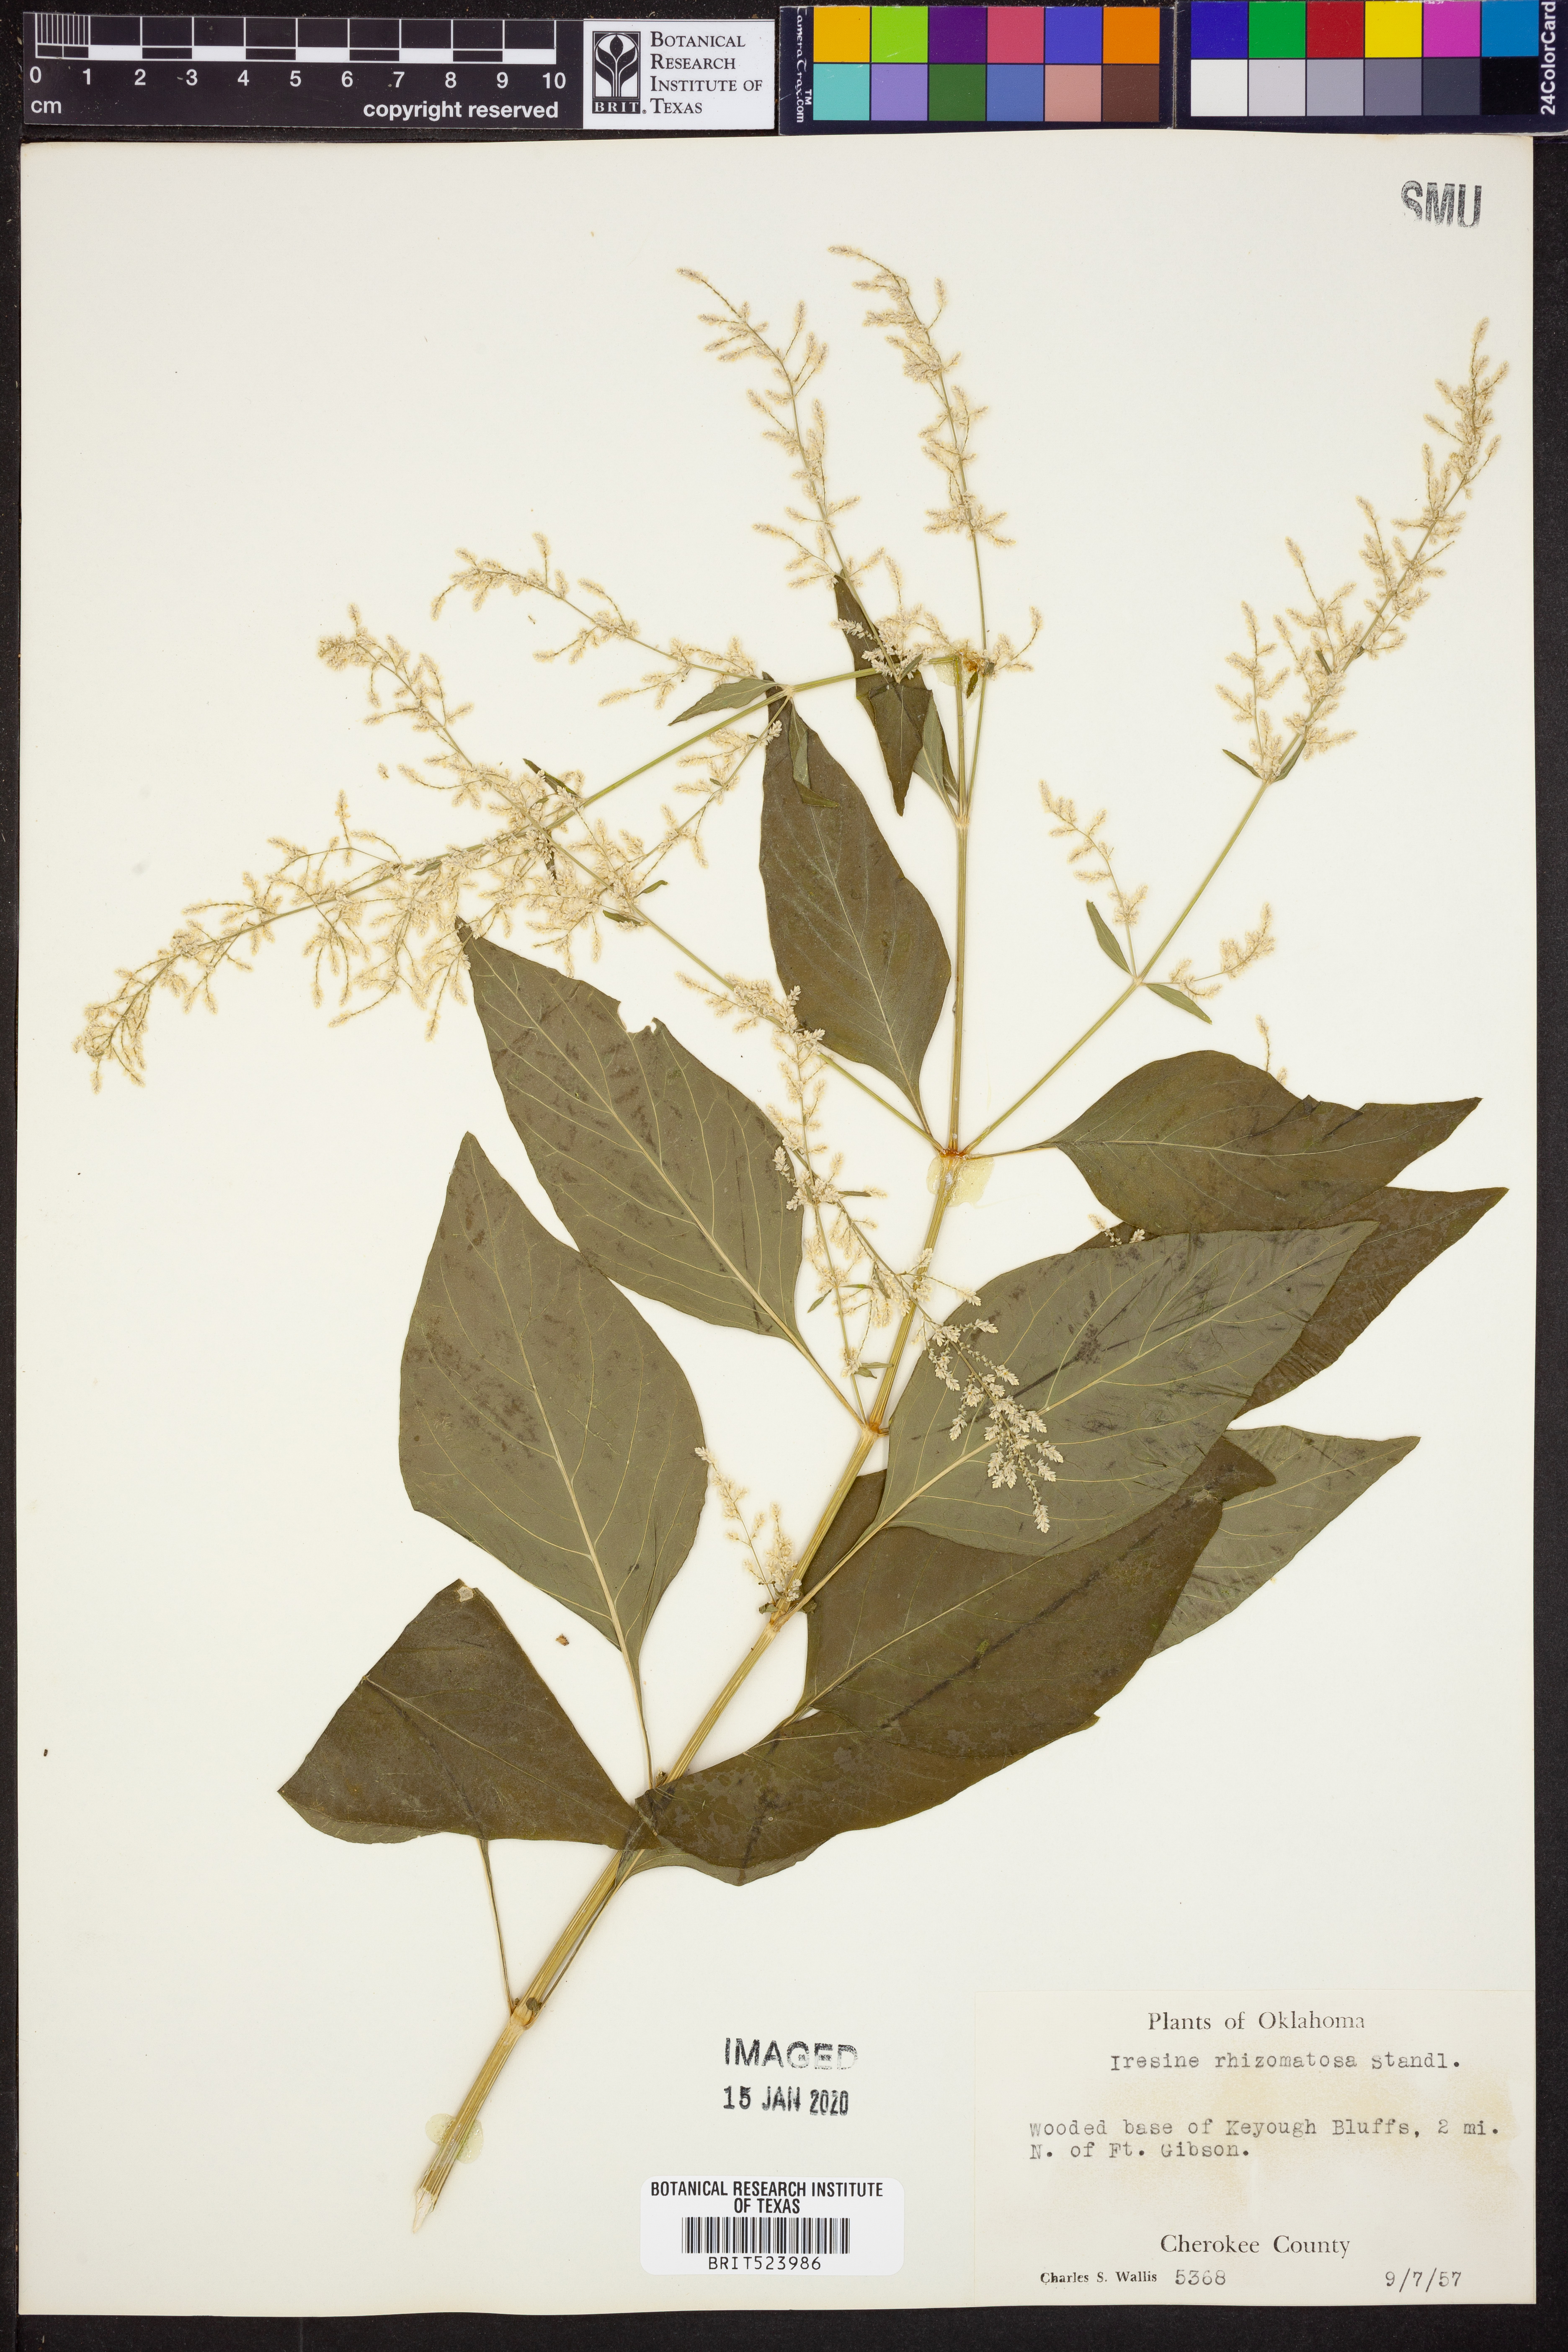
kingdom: Plantae
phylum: Tracheophyta
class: Magnoliopsida
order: Caryophyllales
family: Amaranthaceae
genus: Iresine
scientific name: Iresine rhizomatosa
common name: Juda's-bush
